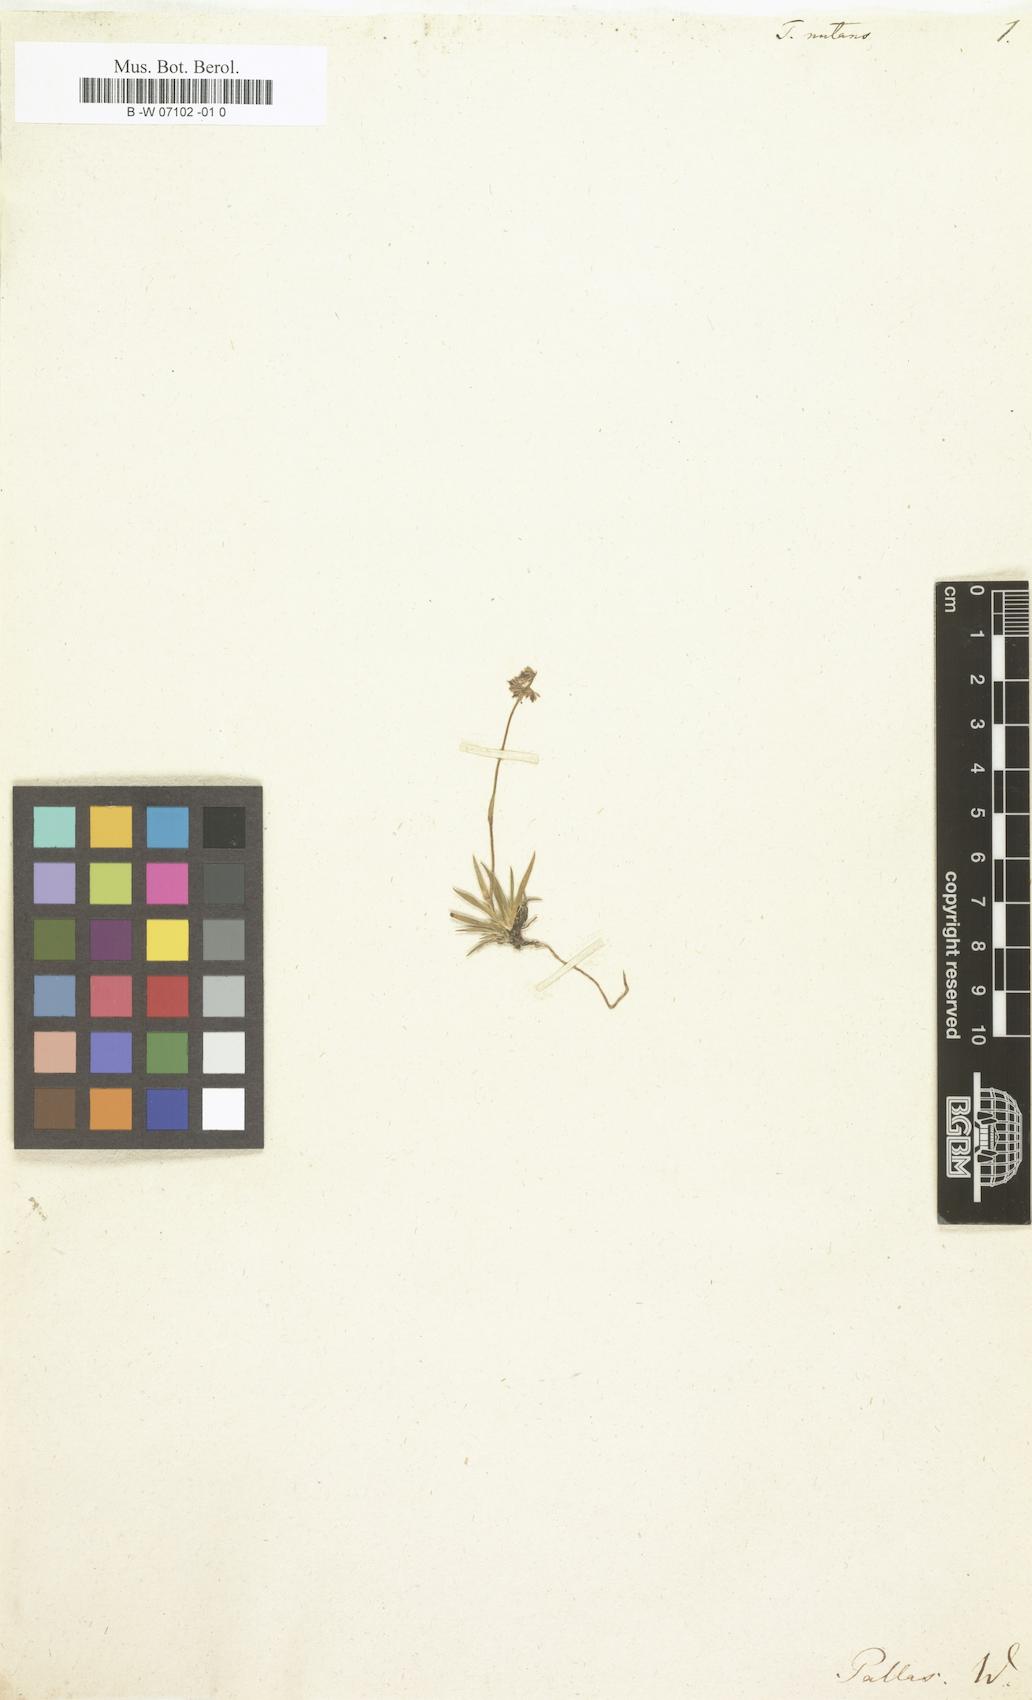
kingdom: Plantae
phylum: Tracheophyta
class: Liliopsida
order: Alismatales
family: Tofieldiaceae
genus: Tofieldia
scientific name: Tofieldia coccinea
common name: Northern false asphodel
